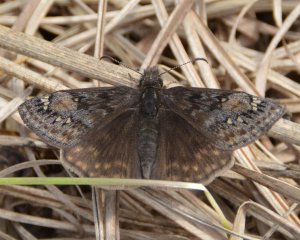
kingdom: Animalia
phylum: Arthropoda
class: Insecta
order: Lepidoptera
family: Hesperiidae
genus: Gesta
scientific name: Gesta
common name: Juvenal's Duskywing
